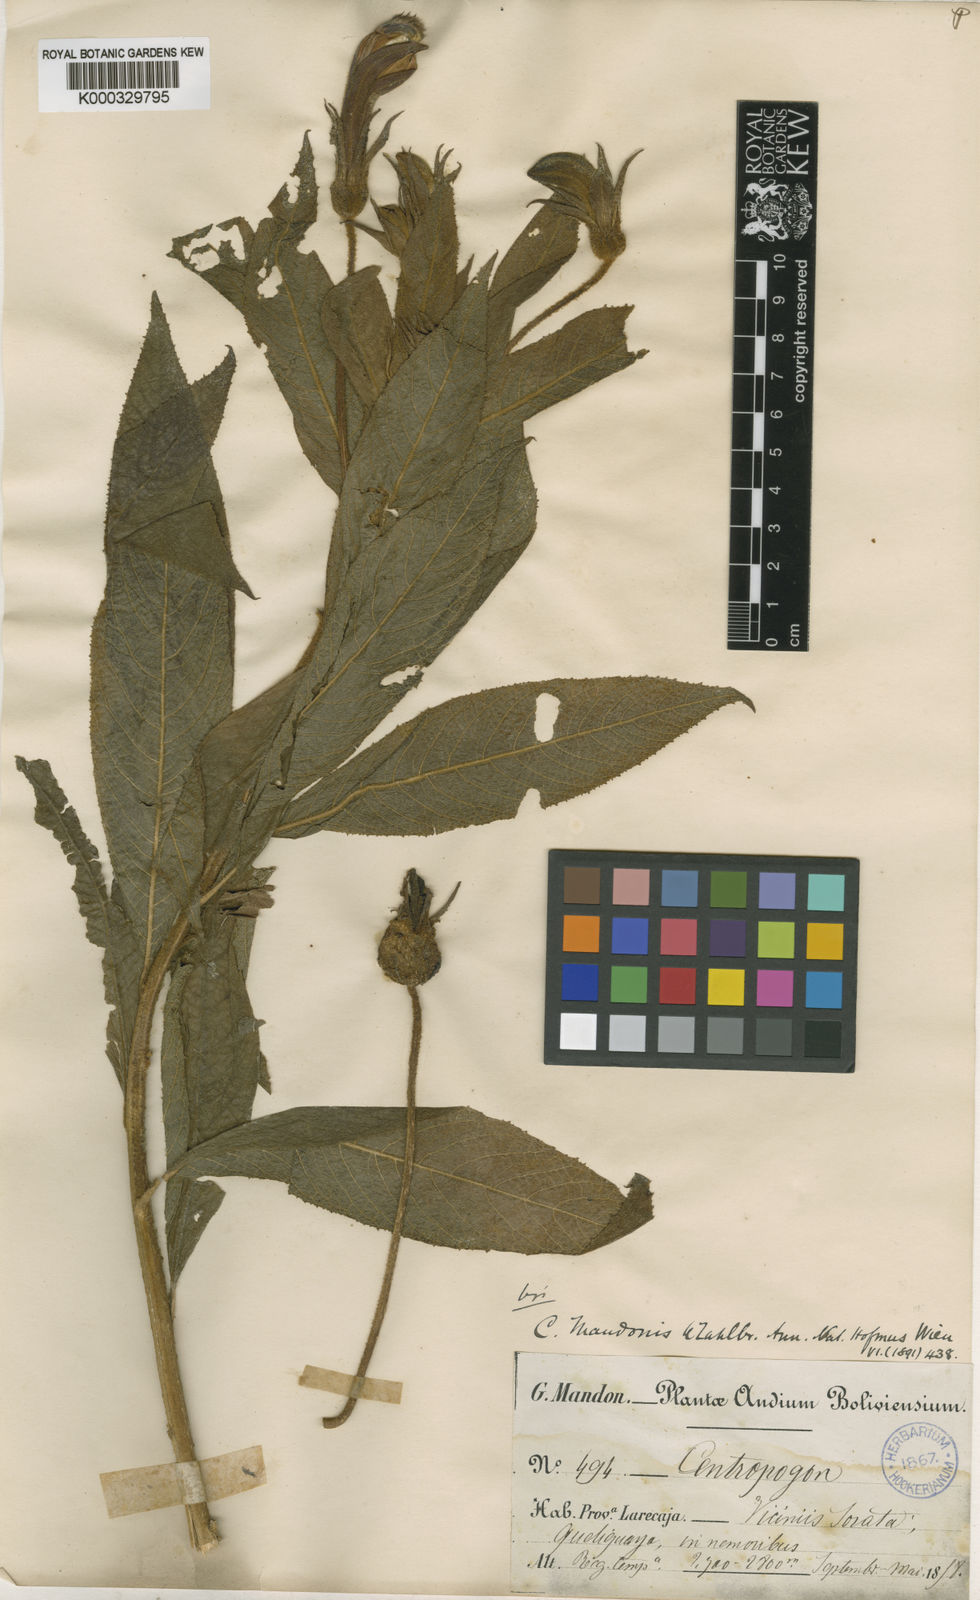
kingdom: Plantae
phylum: Tracheophyta
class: Magnoliopsida
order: Asterales
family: Campanulaceae
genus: Centropogon
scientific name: Centropogon mandonis
